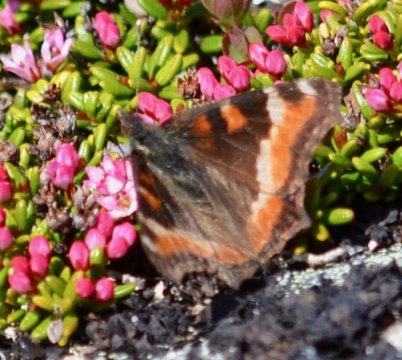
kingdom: Animalia
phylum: Arthropoda
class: Insecta
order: Lepidoptera
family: Nymphalidae
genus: Aglais
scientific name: Aglais milberti
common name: Milbert's Tortoiseshell
